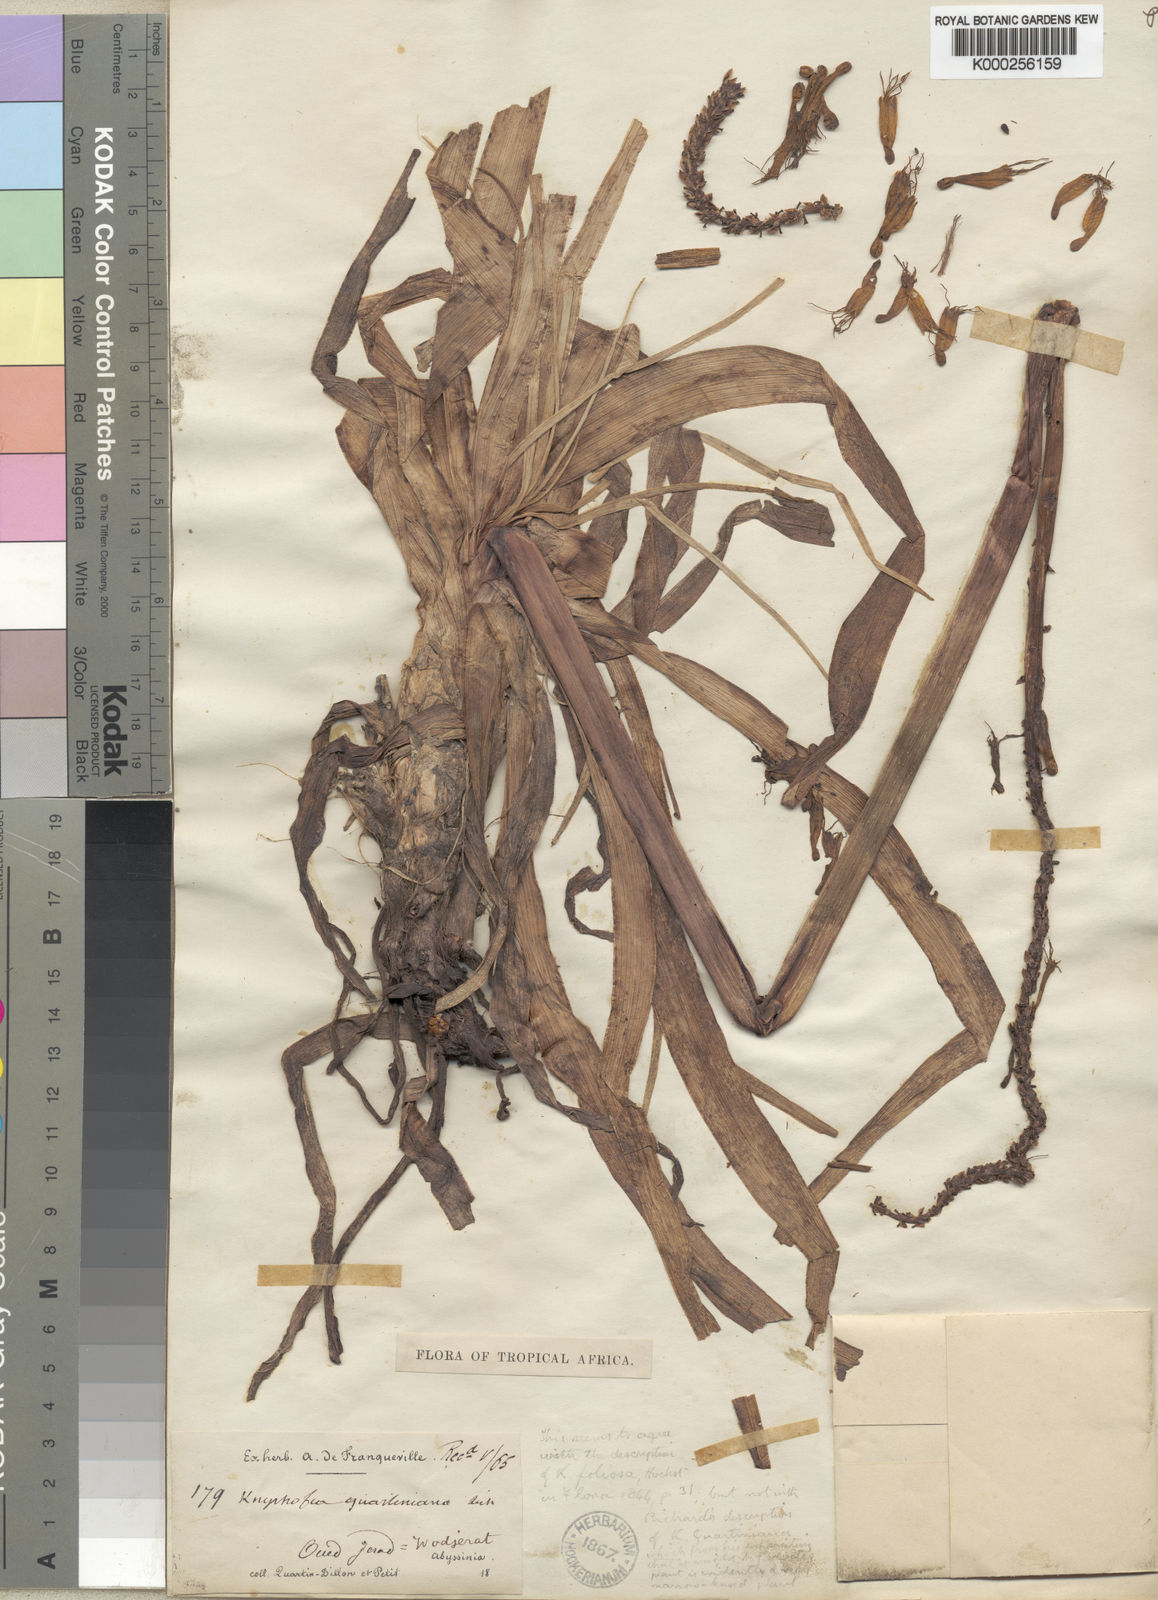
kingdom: Plantae
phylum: Tracheophyta
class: Liliopsida
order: Asparagales
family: Asphodelaceae
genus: Kniphofia
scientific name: Kniphofia foliosa
